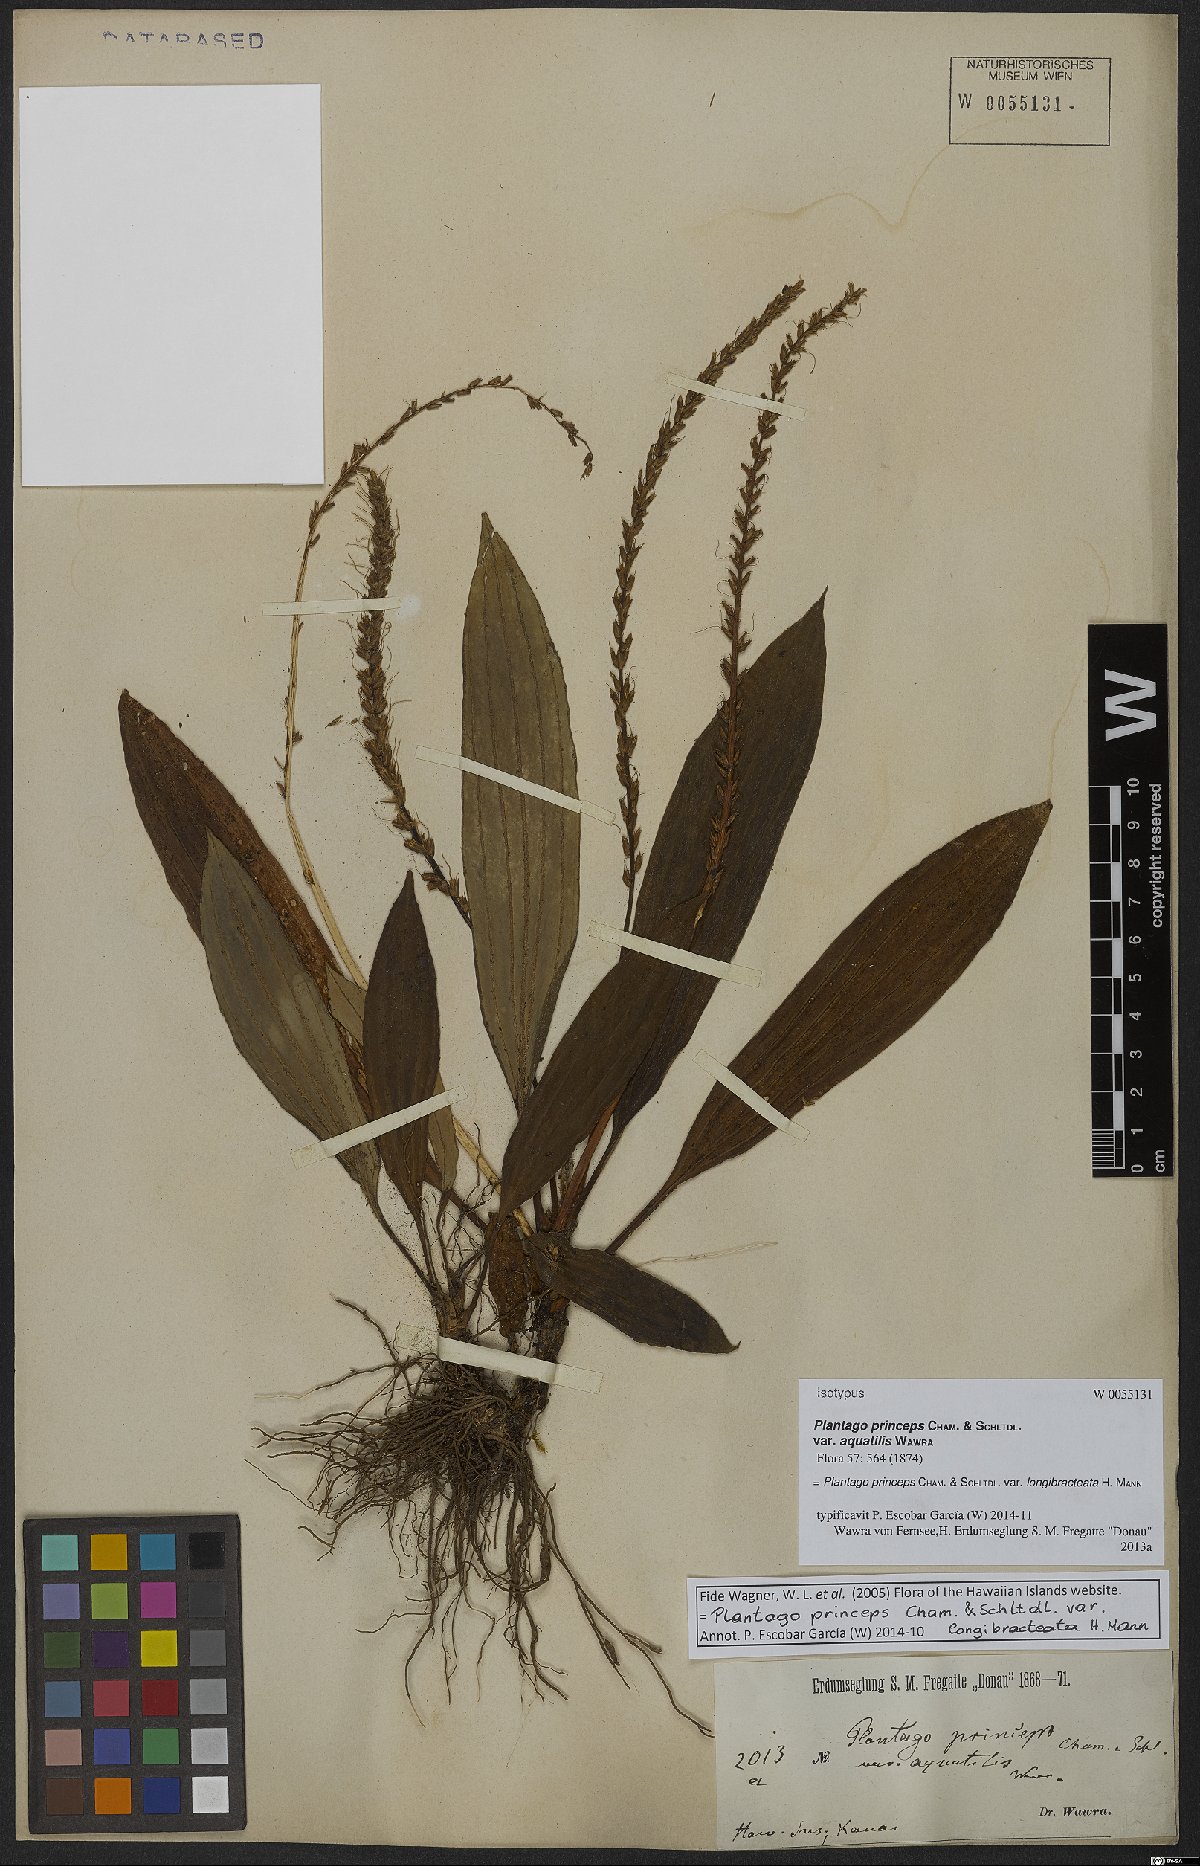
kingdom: Plantae
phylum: Tracheophyta
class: Magnoliopsida
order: Lamiales
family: Plantaginaceae
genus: Plantago
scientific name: Plantago princeps
